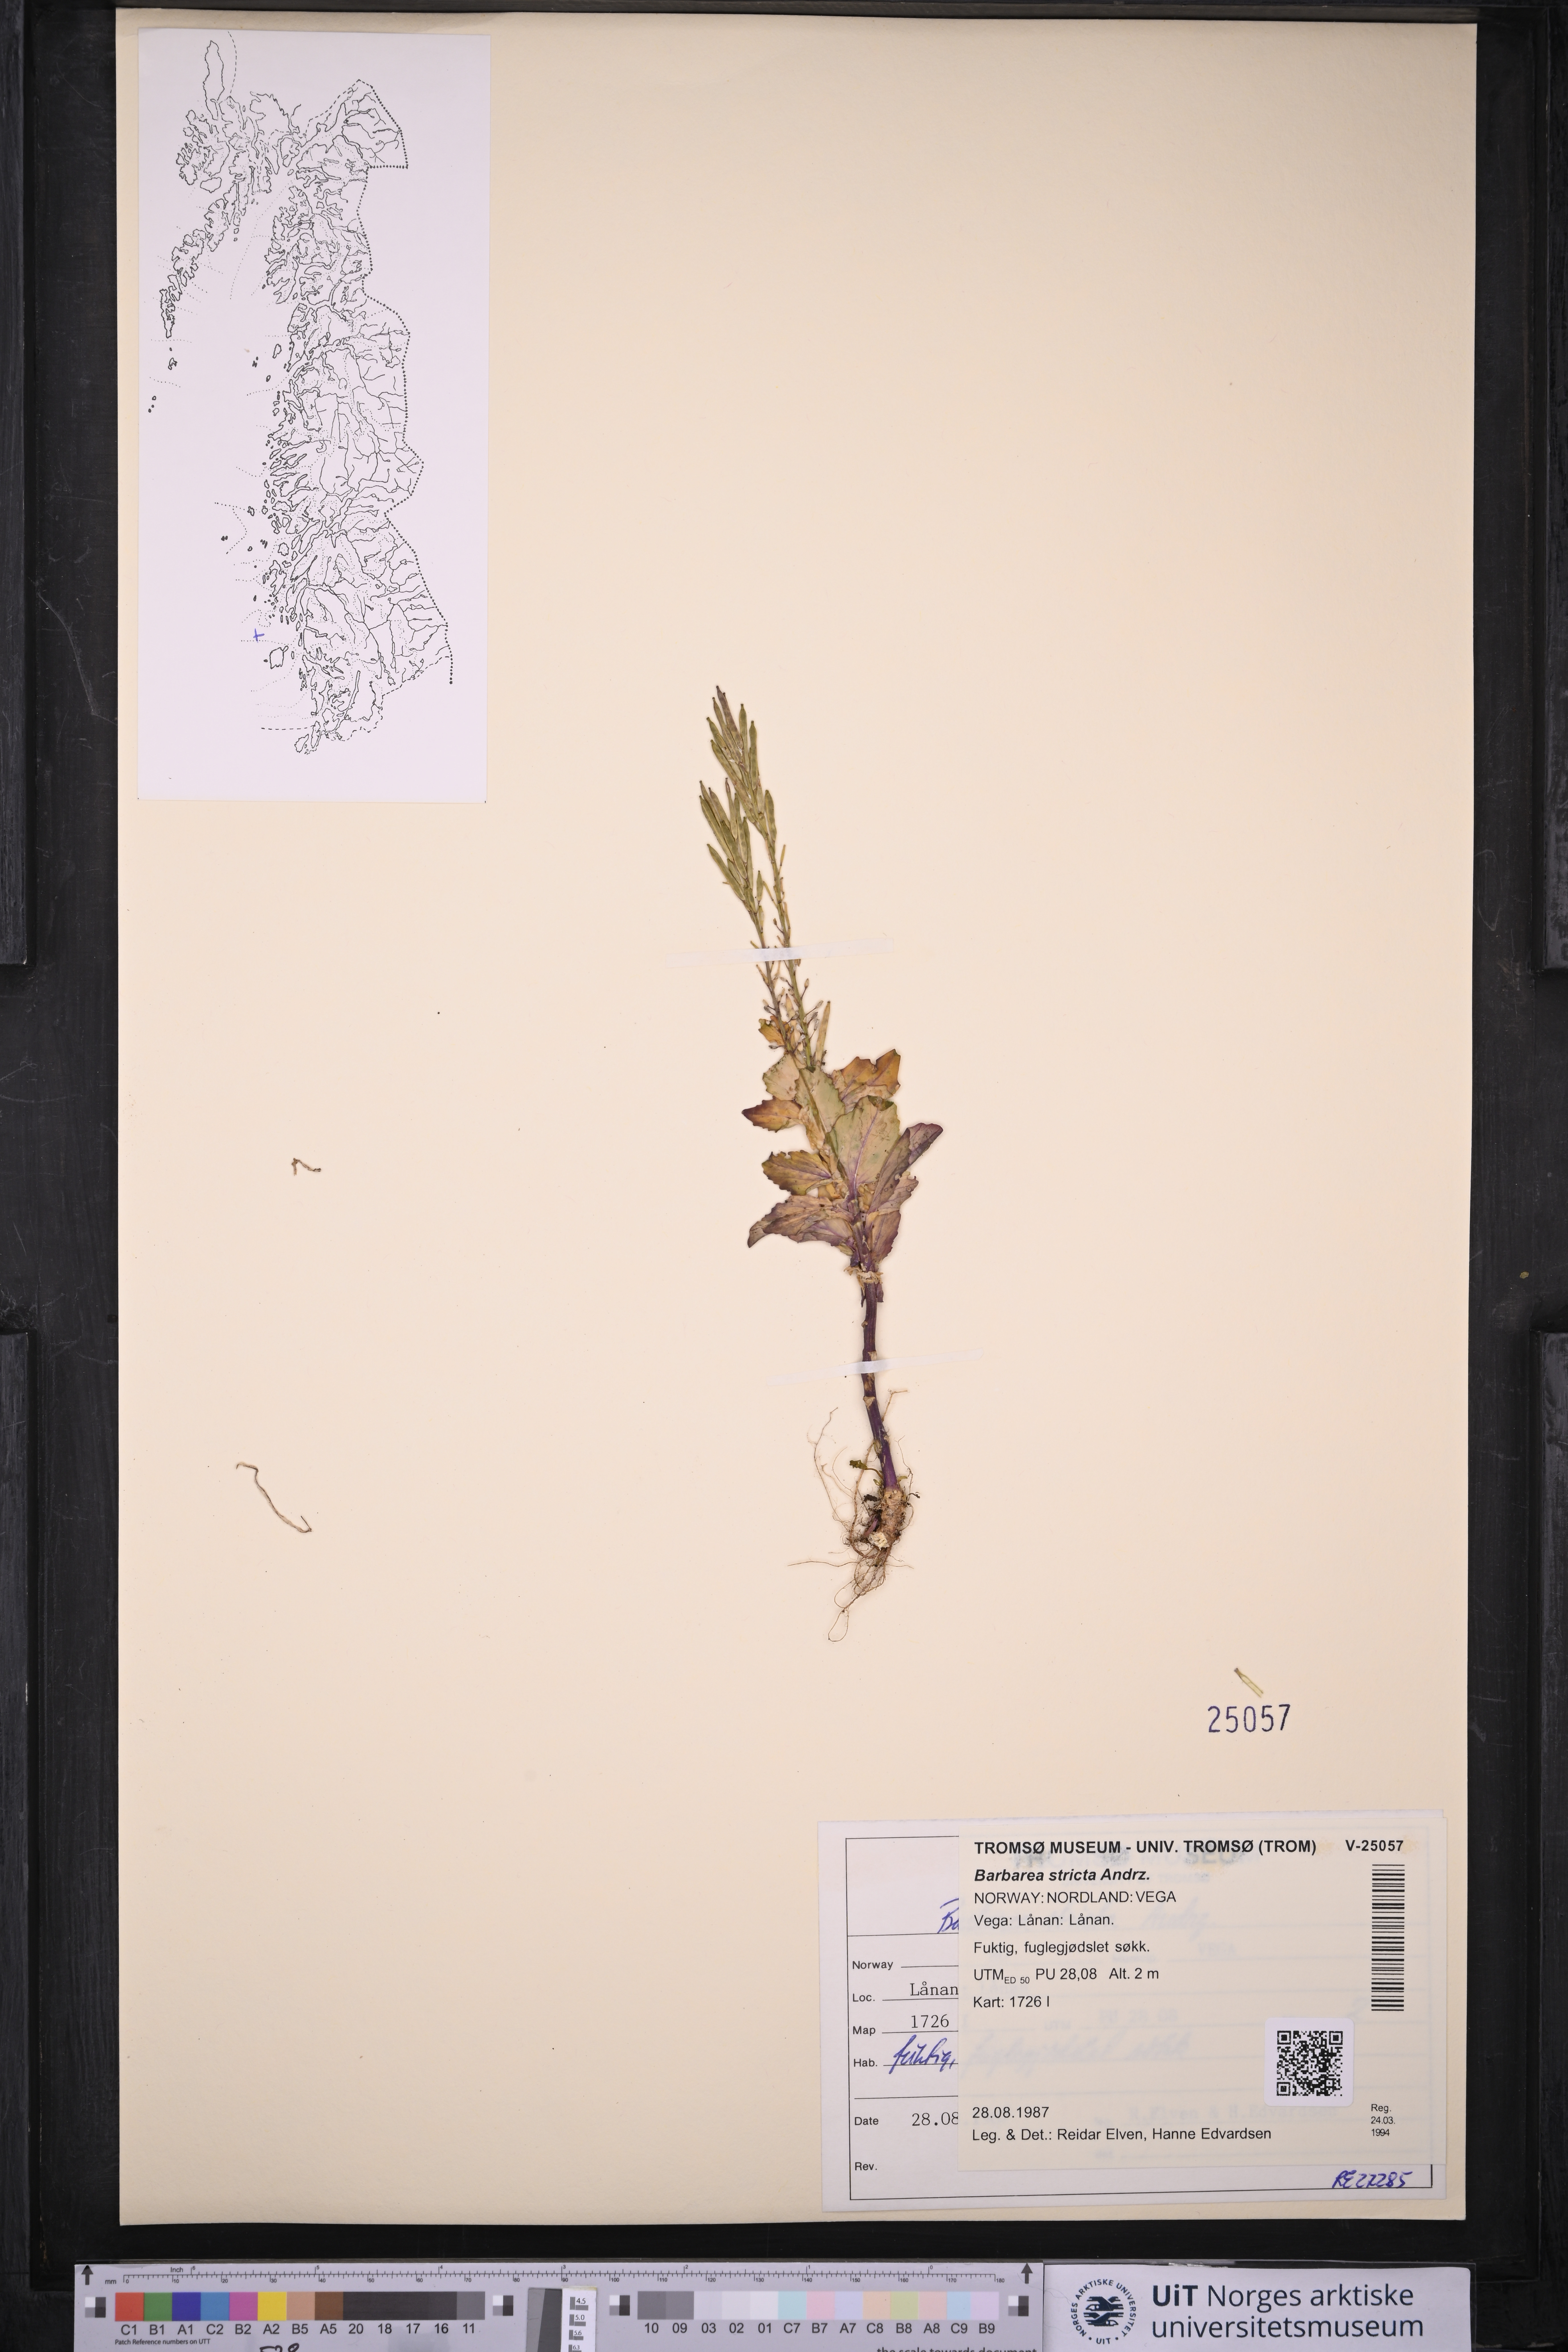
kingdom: Plantae
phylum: Tracheophyta
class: Magnoliopsida
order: Brassicales
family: Brassicaceae
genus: Barbarea
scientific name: Barbarea stricta
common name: Small-flowered winter-cress
